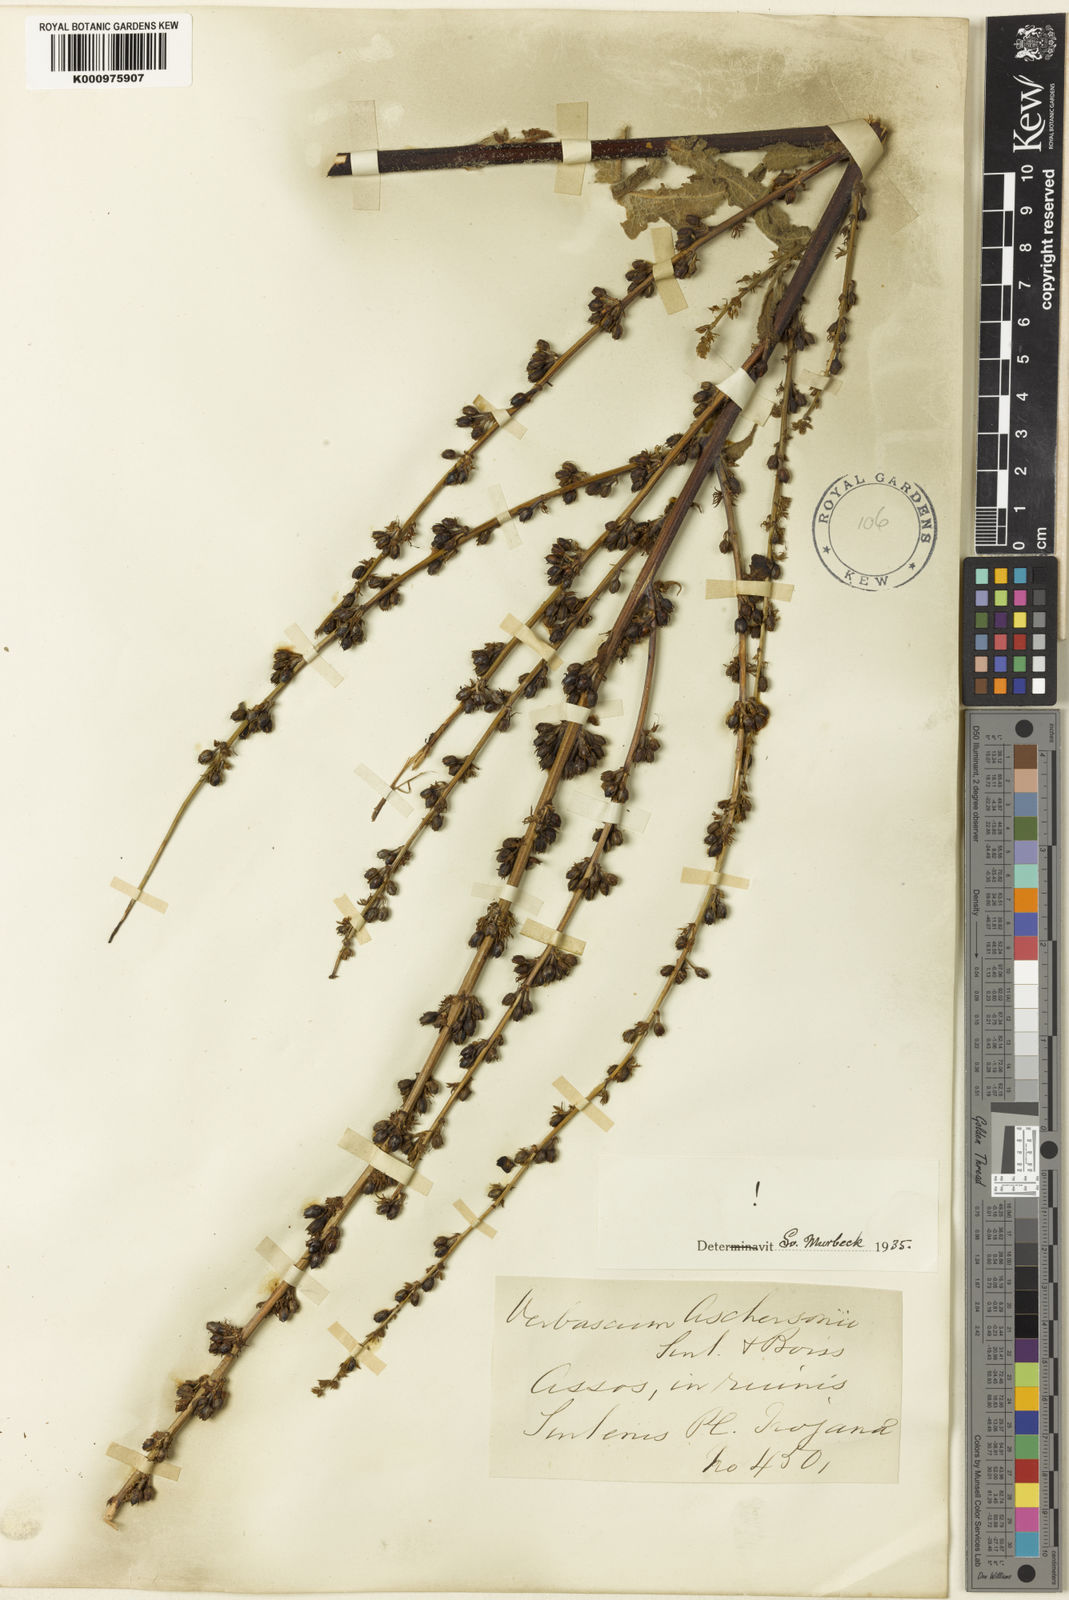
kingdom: Plantae
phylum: Tracheophyta
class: Magnoliopsida
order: Lamiales
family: Scrophulariaceae
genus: Verbascum
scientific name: Verbascum aschersonii
